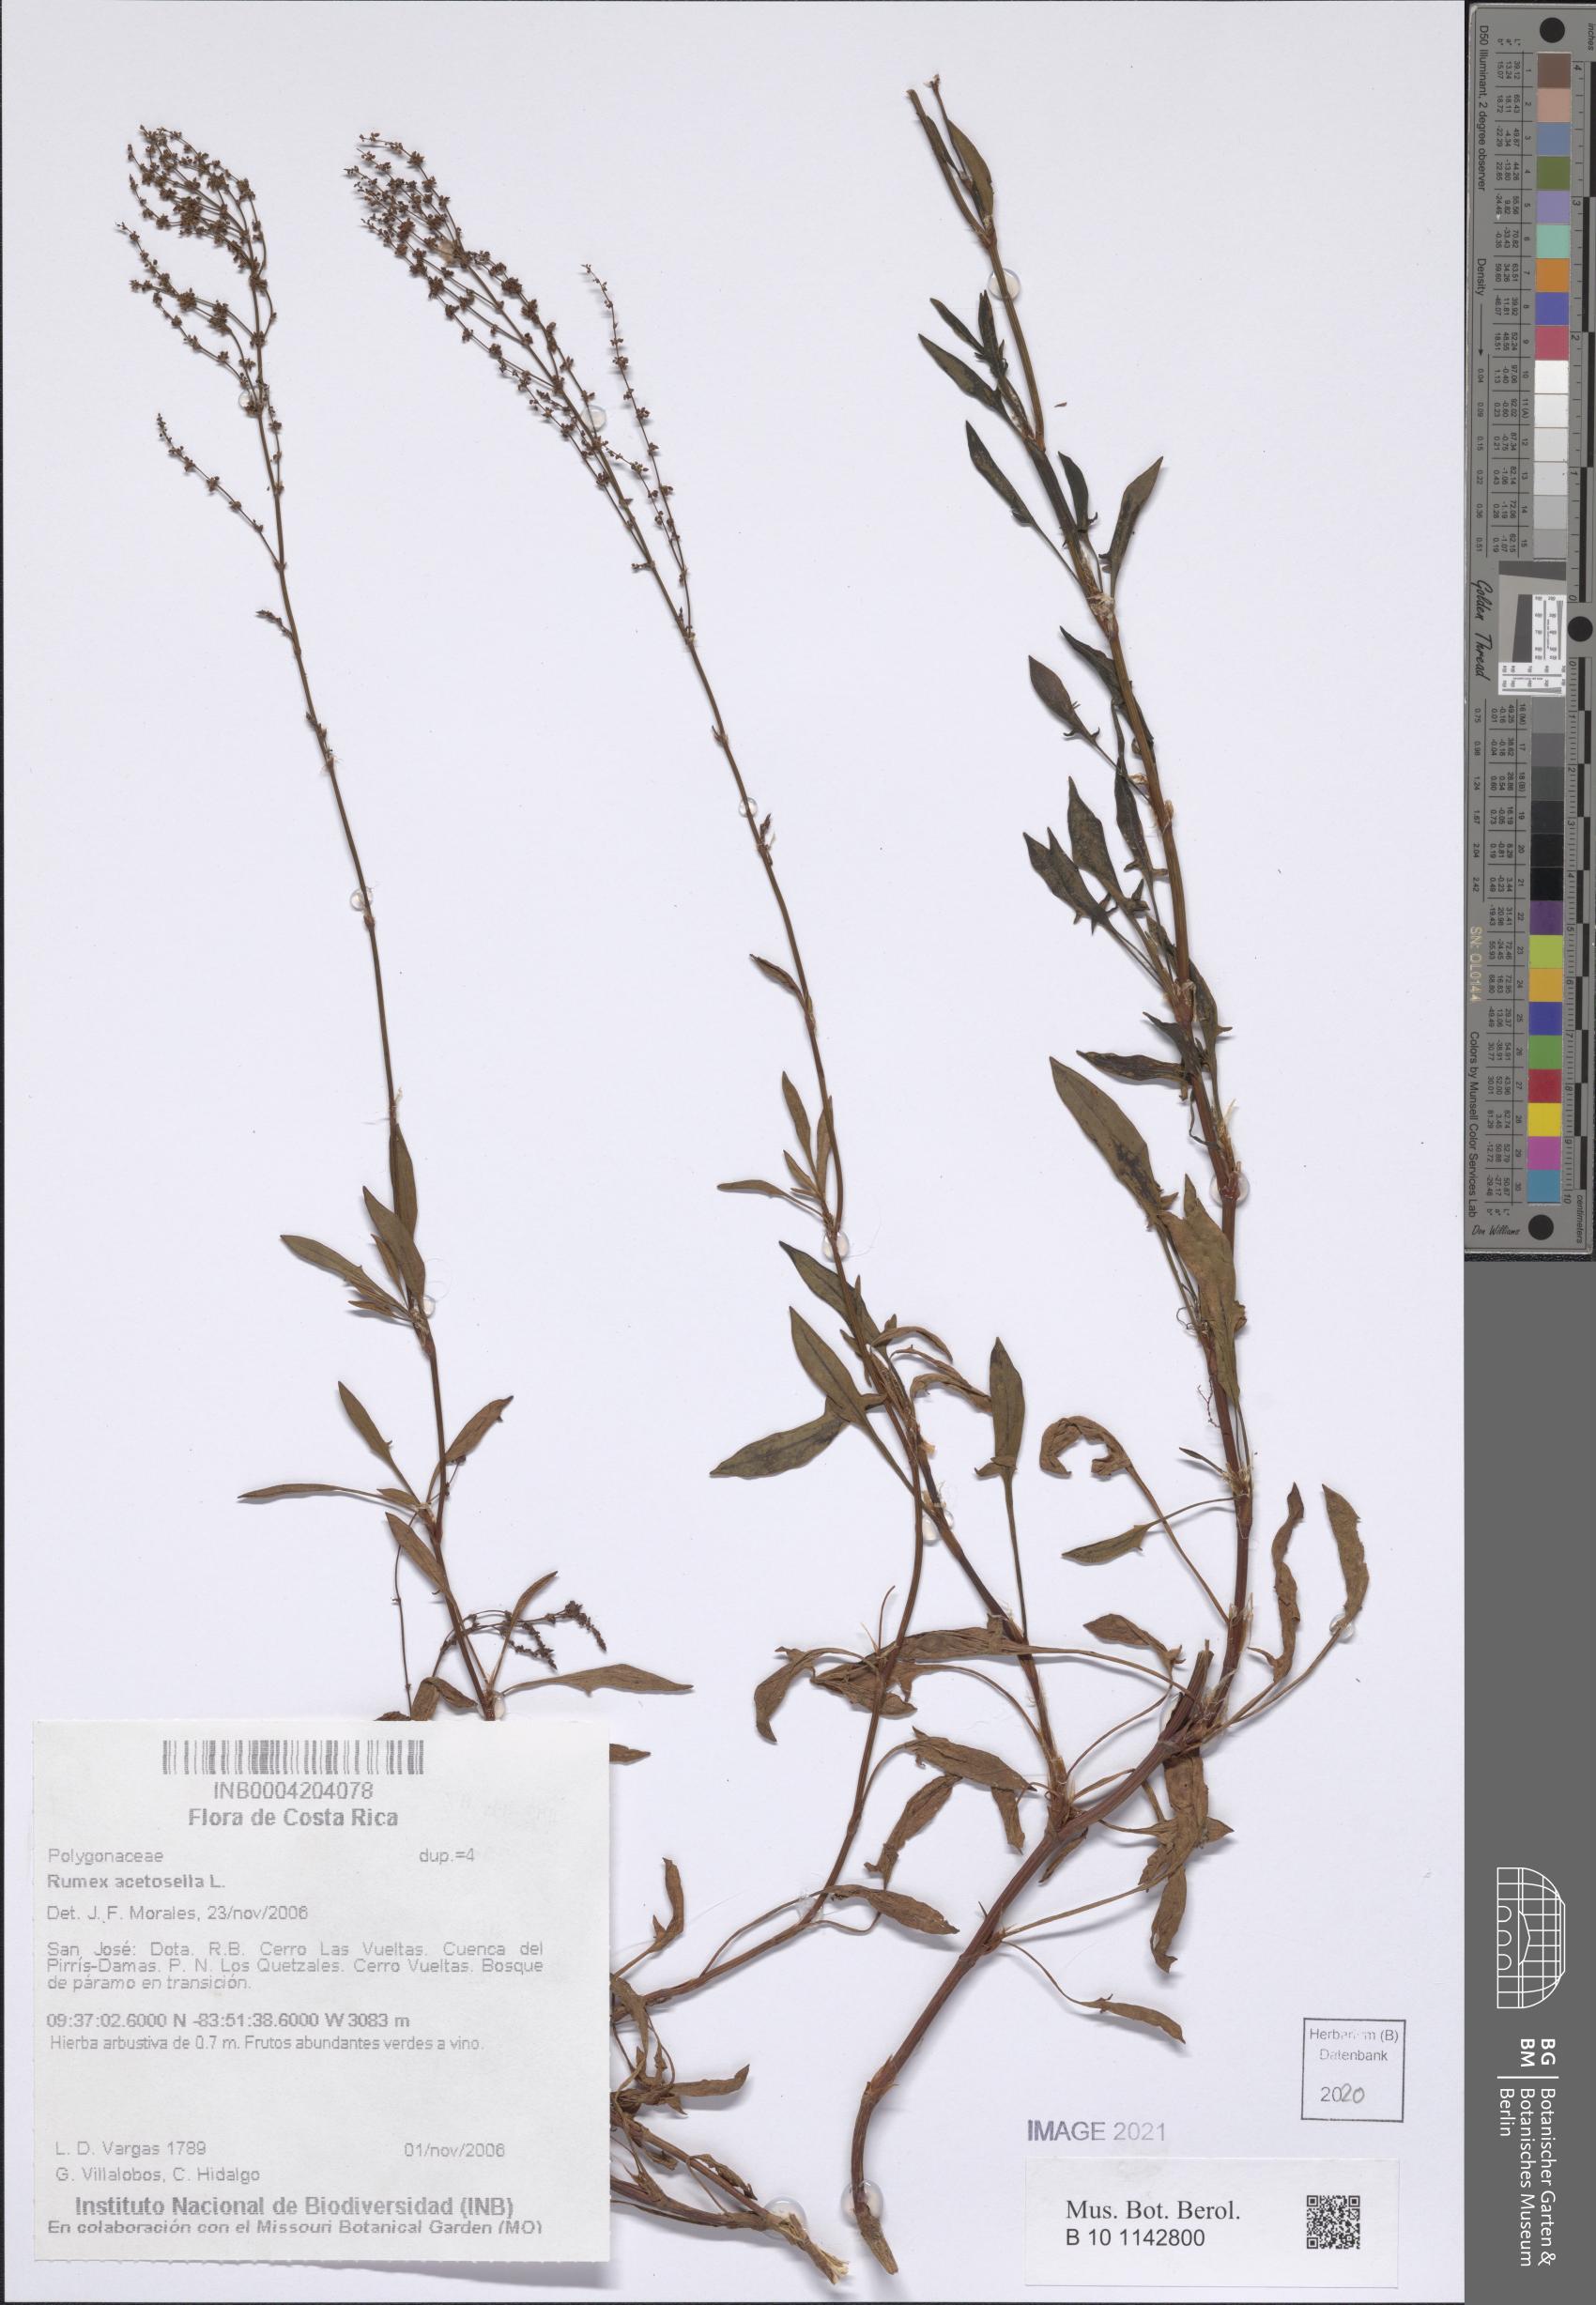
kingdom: Plantae
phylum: Tracheophyta
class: Magnoliopsida
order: Caryophyllales
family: Polygonaceae
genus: Rumex
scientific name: Rumex acetosella
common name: Common sheep sorrel
